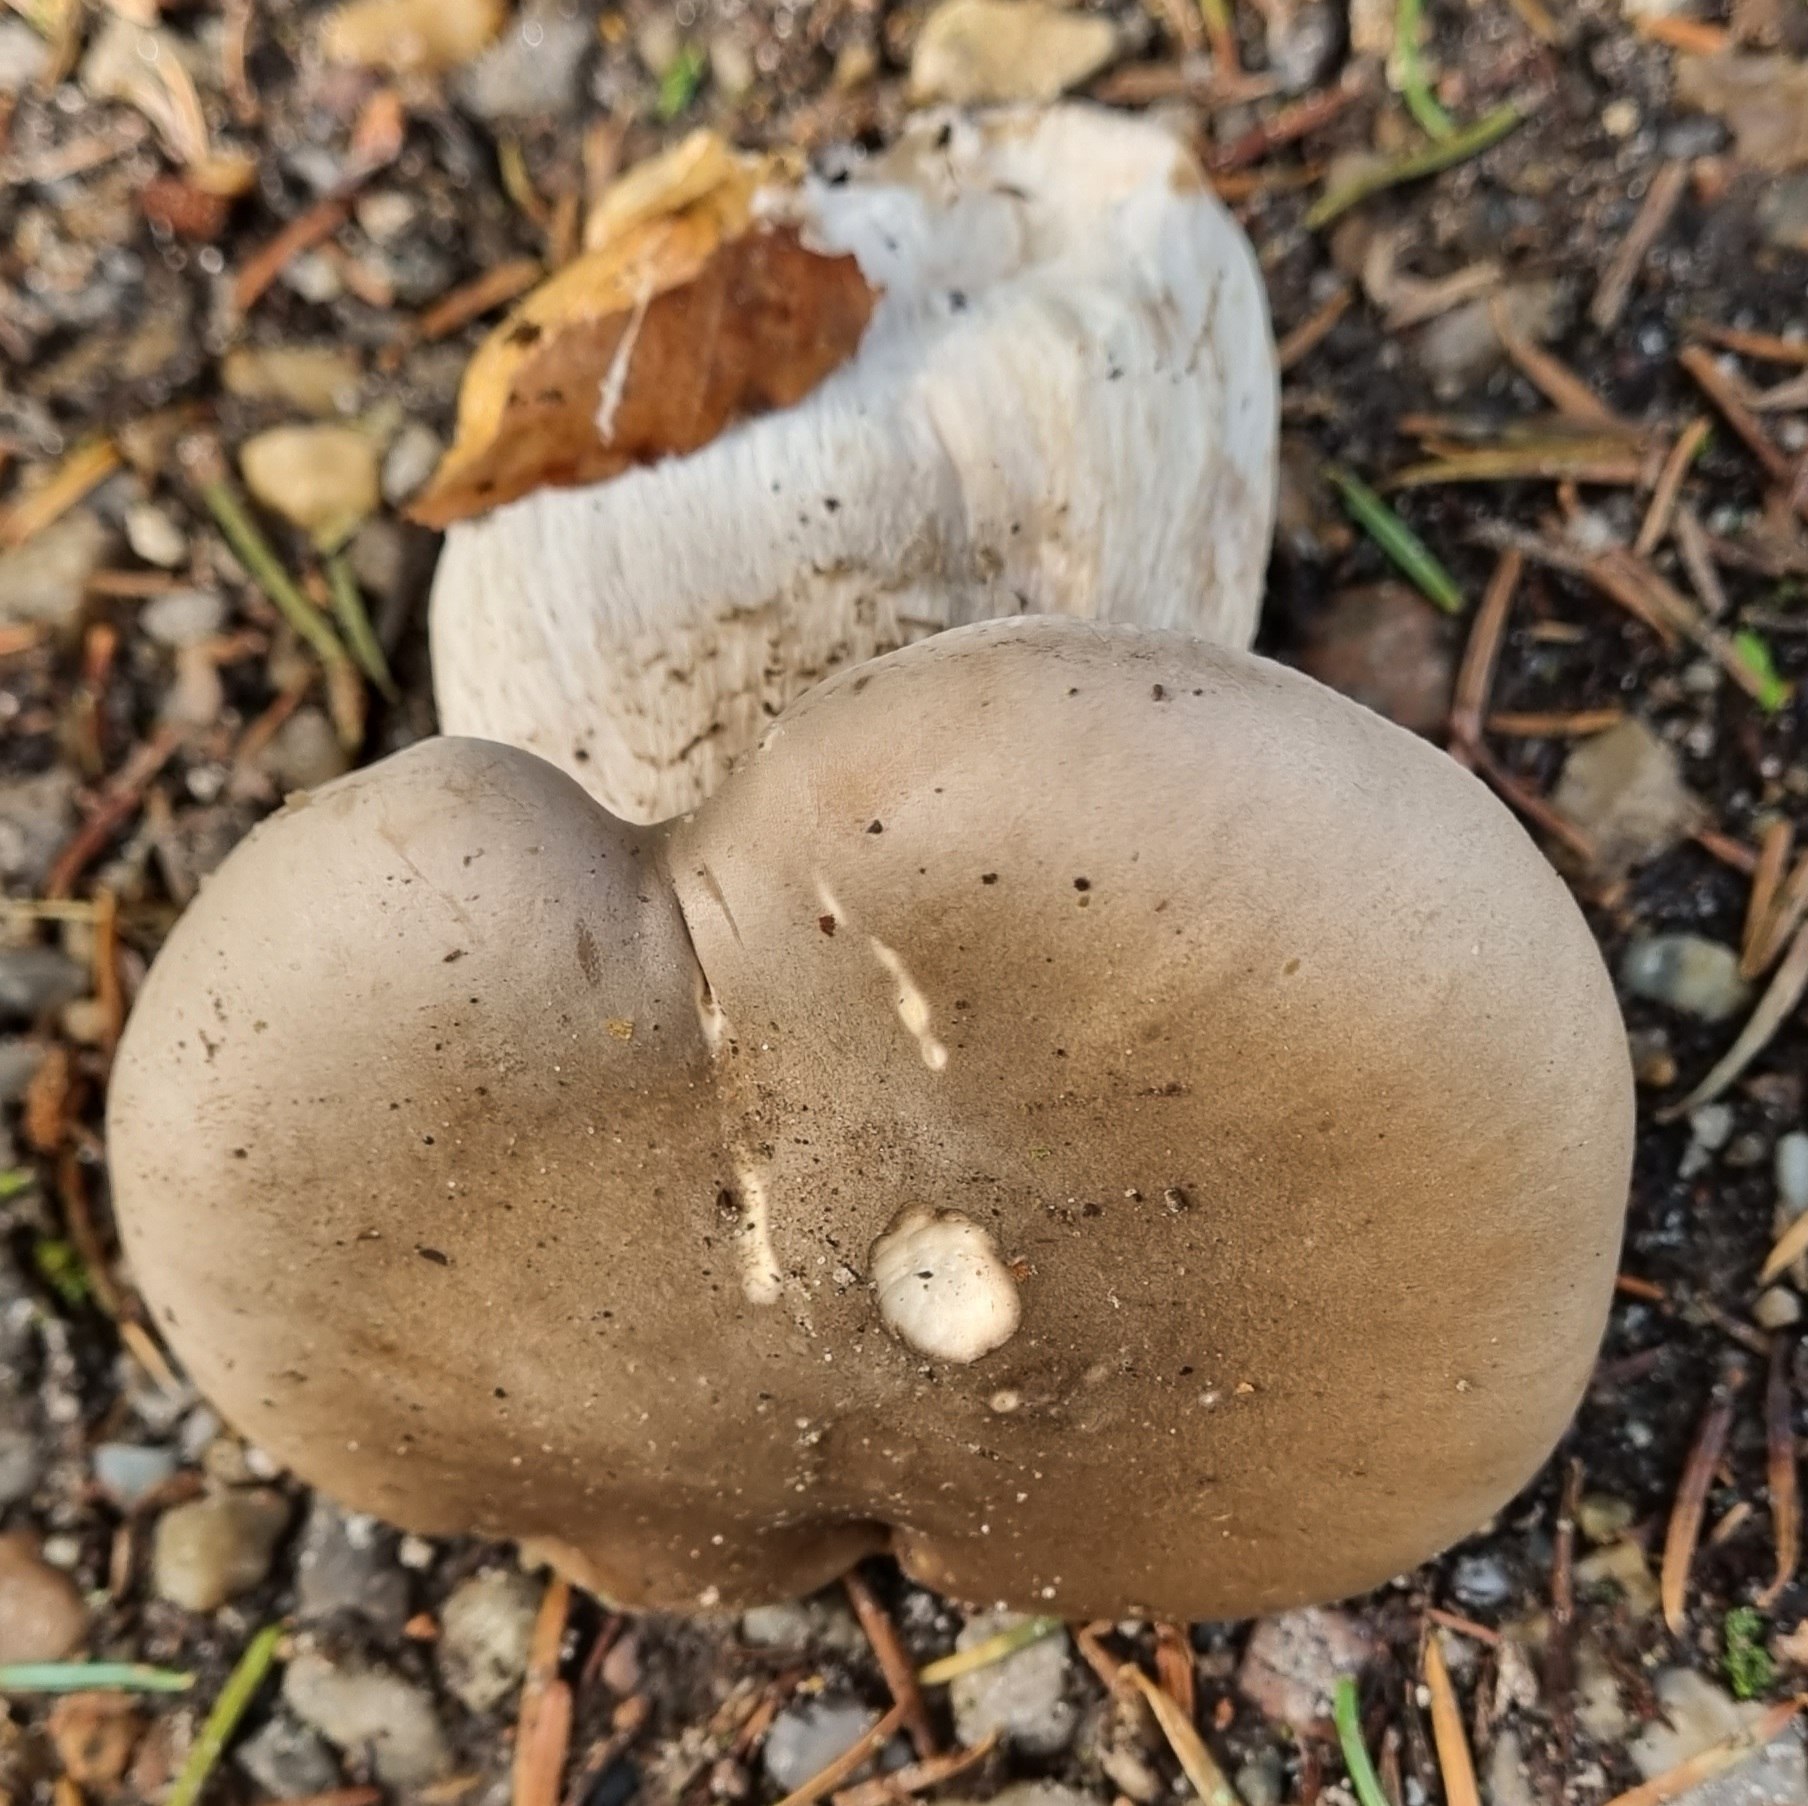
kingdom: Fungi
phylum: Basidiomycota
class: Agaricomycetes
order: Agaricales
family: Tricholomataceae
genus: Clitocybe
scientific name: Clitocybe nebularis
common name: tåge-tragthat
